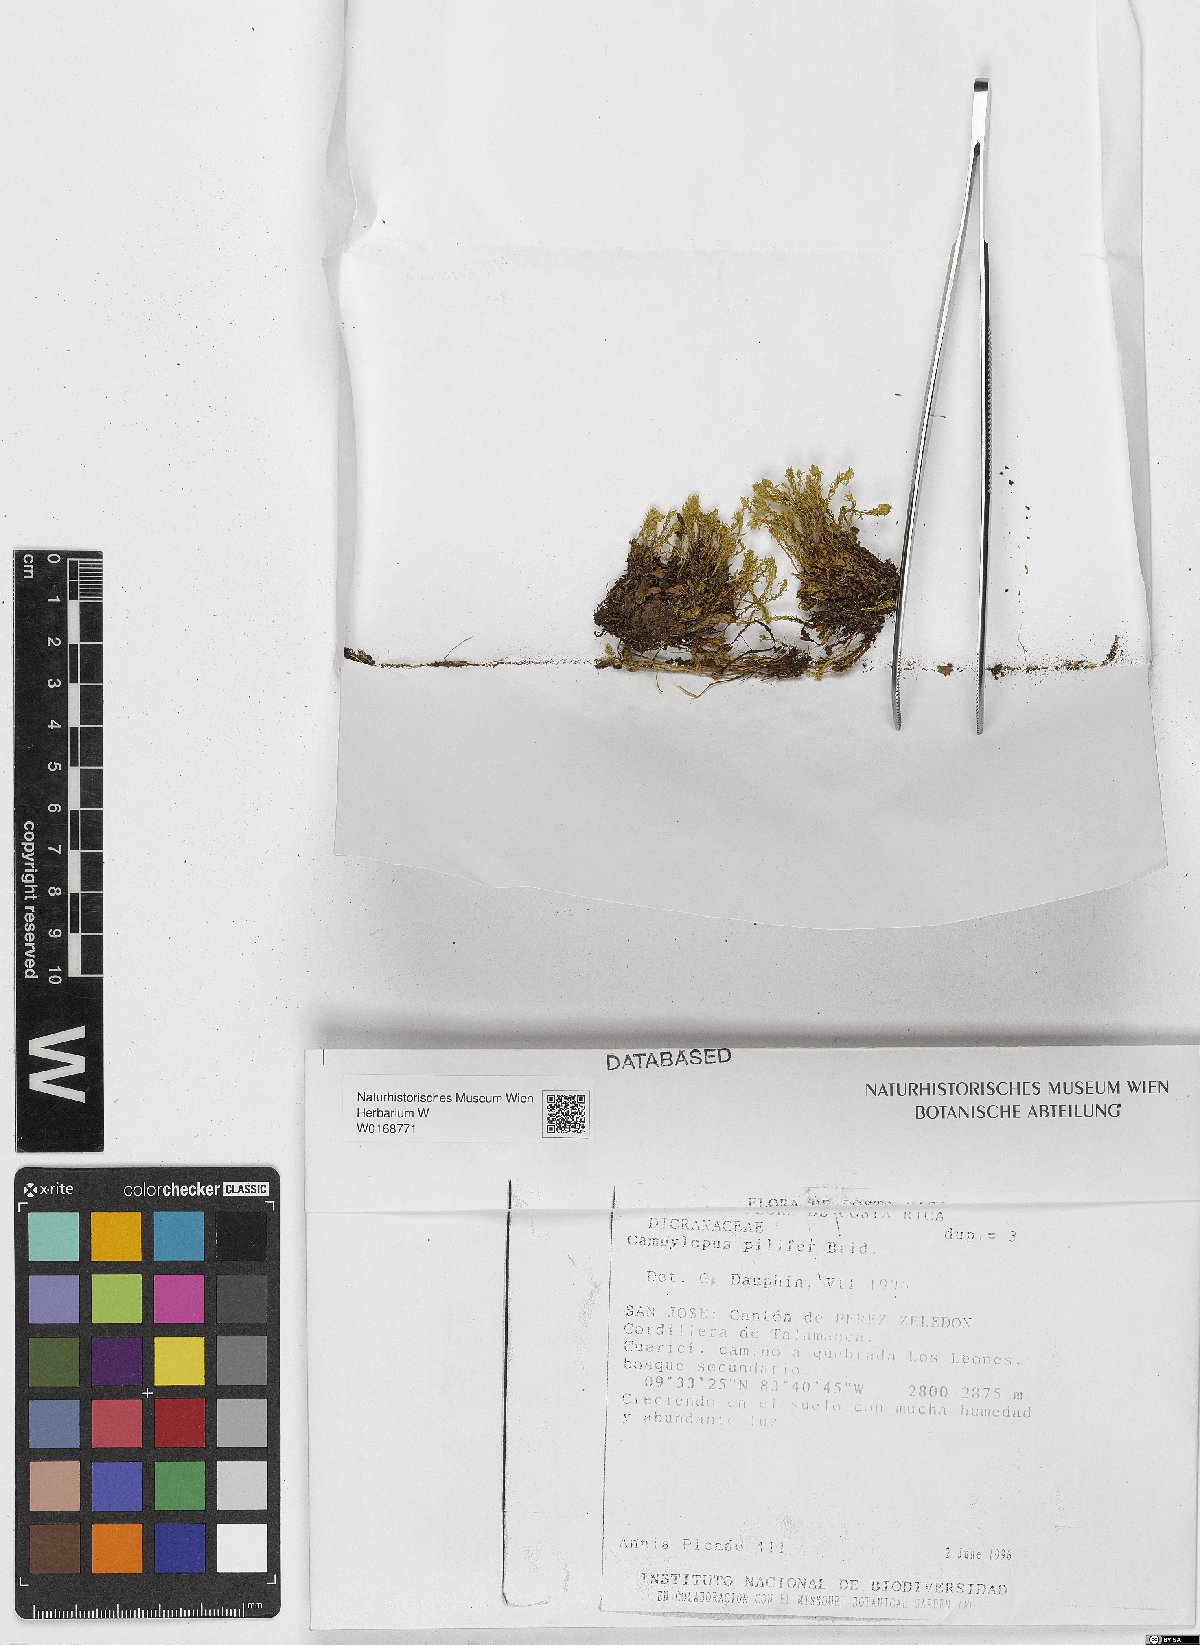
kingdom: Plantae
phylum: Bryophyta
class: Bryopsida
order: Dicranales
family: Leucobryaceae
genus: Campylopus
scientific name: Campylopus pilifer
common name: Campylopus moss
